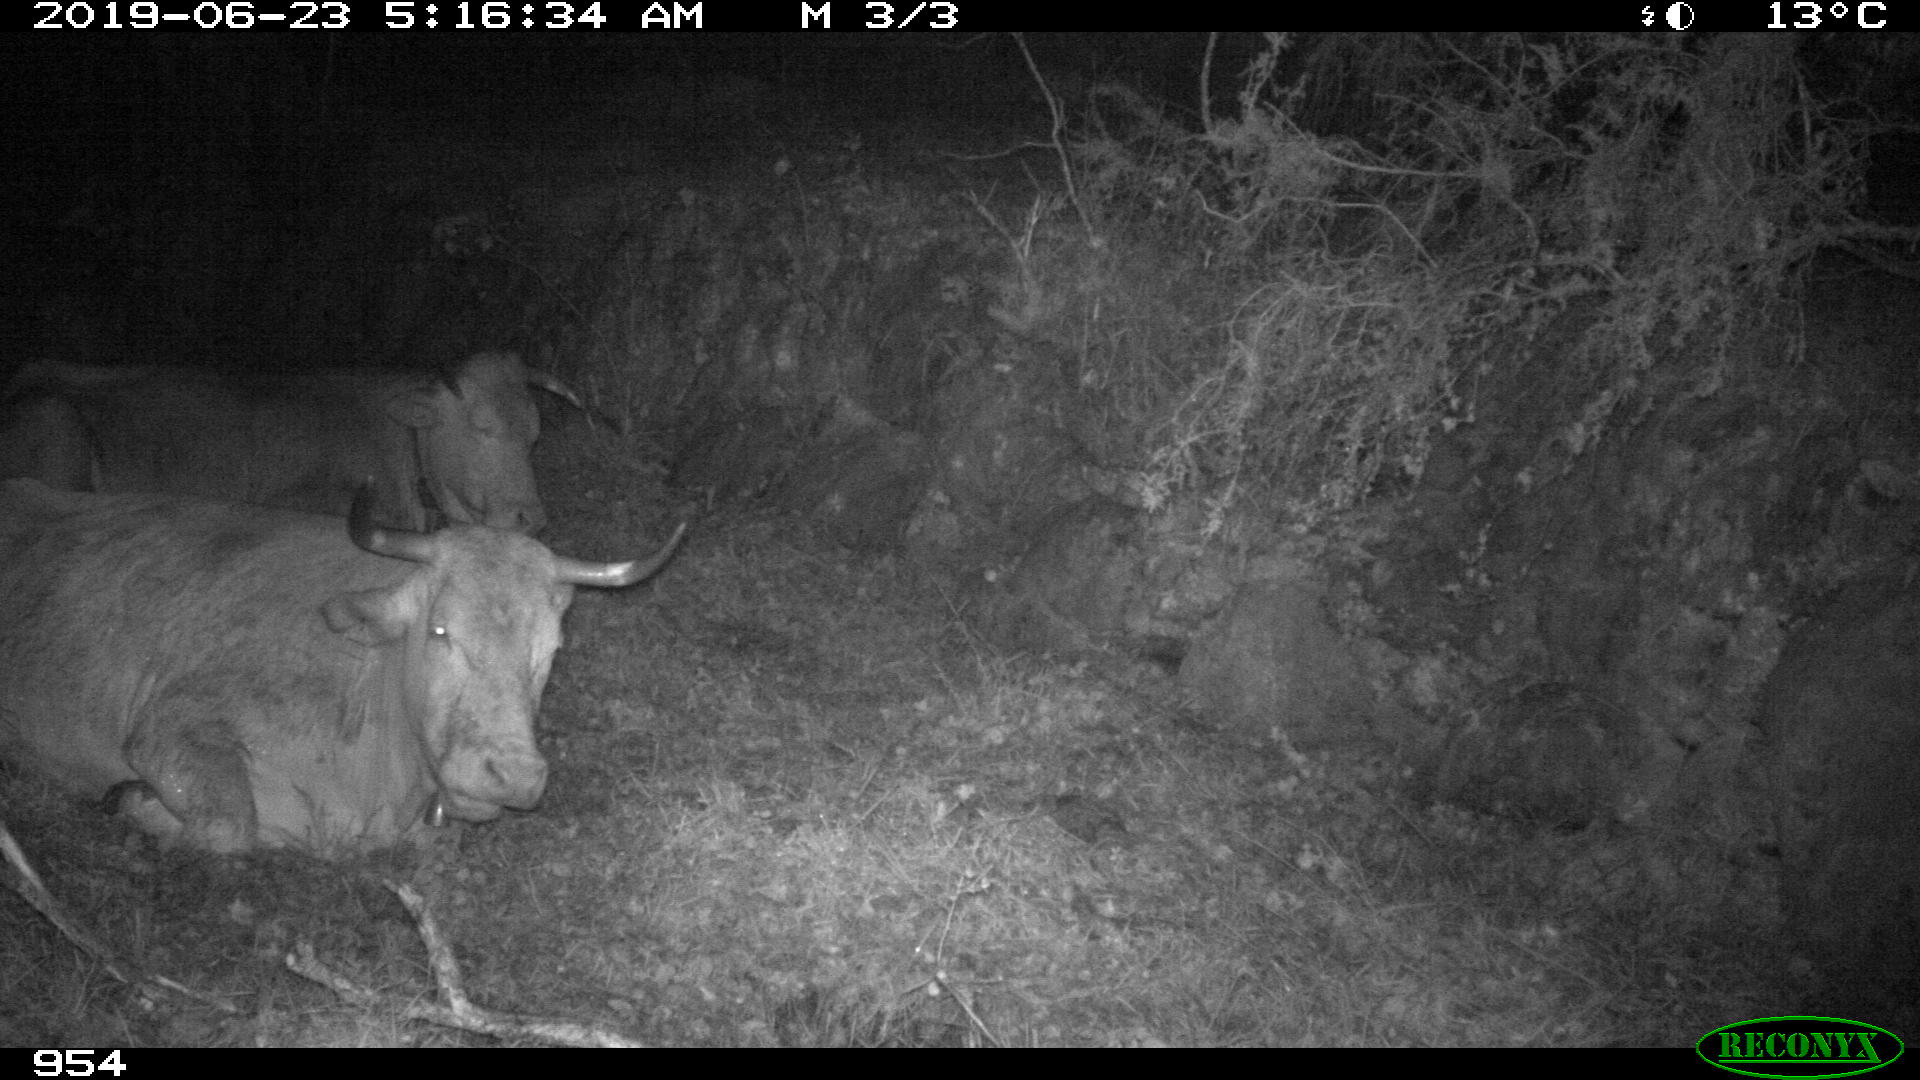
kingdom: Animalia
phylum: Chordata
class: Mammalia
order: Artiodactyla
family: Bovidae
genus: Bos
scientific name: Bos taurus
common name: Domesticated cattle
